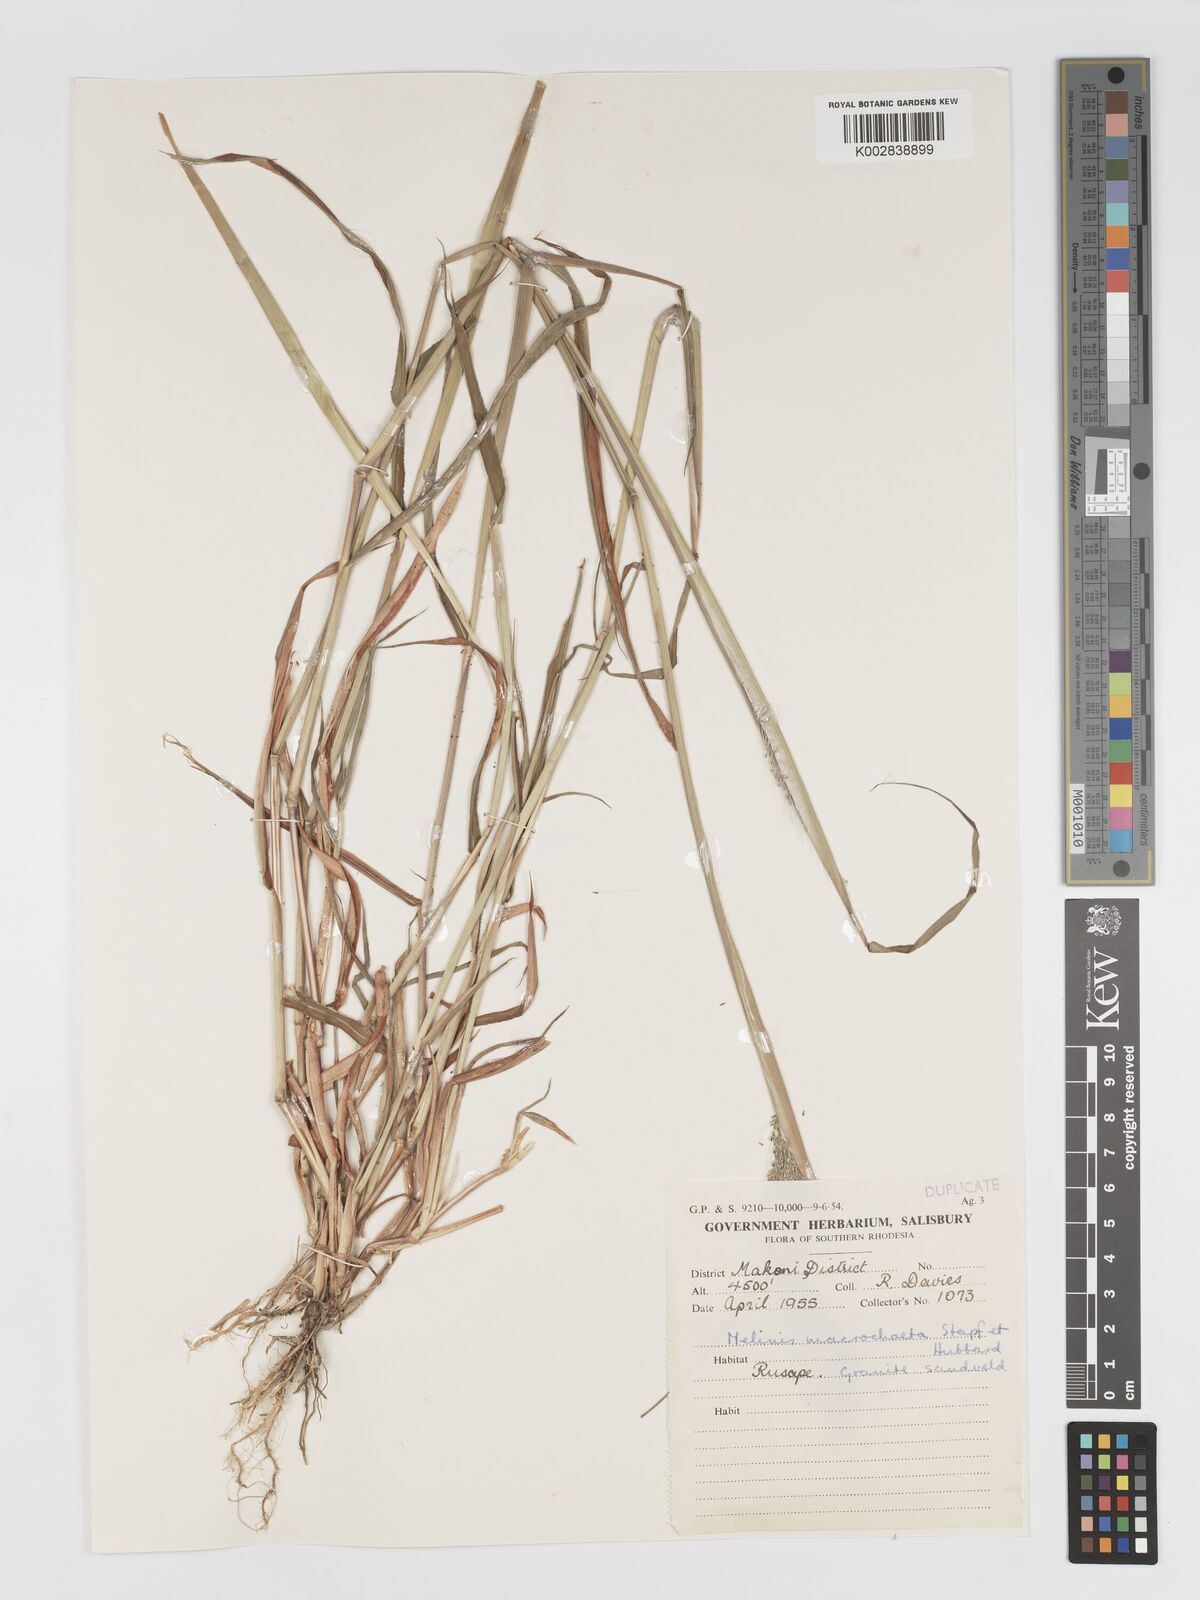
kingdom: Plantae
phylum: Tracheophyta
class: Liliopsida
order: Poales
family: Poaceae
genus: Melinis
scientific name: Melinis macrochaeta
